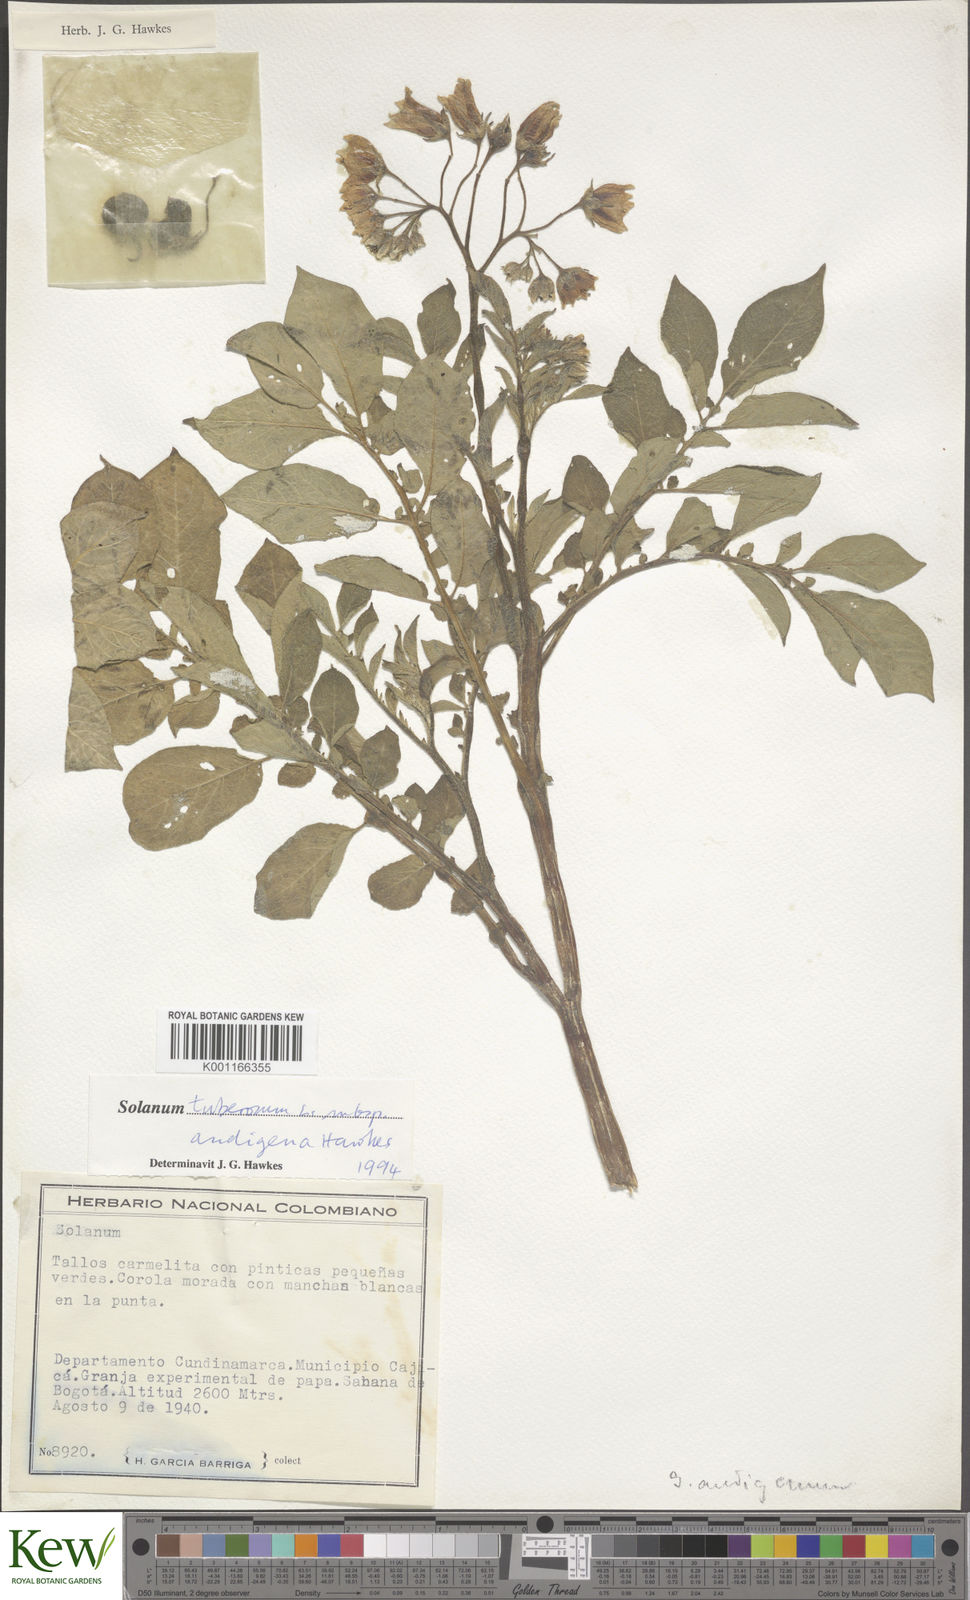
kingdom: Plantae
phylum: Tracheophyta
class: Magnoliopsida
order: Solanales
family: Solanaceae
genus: Solanum
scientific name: Solanum tuberosum
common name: Potato
